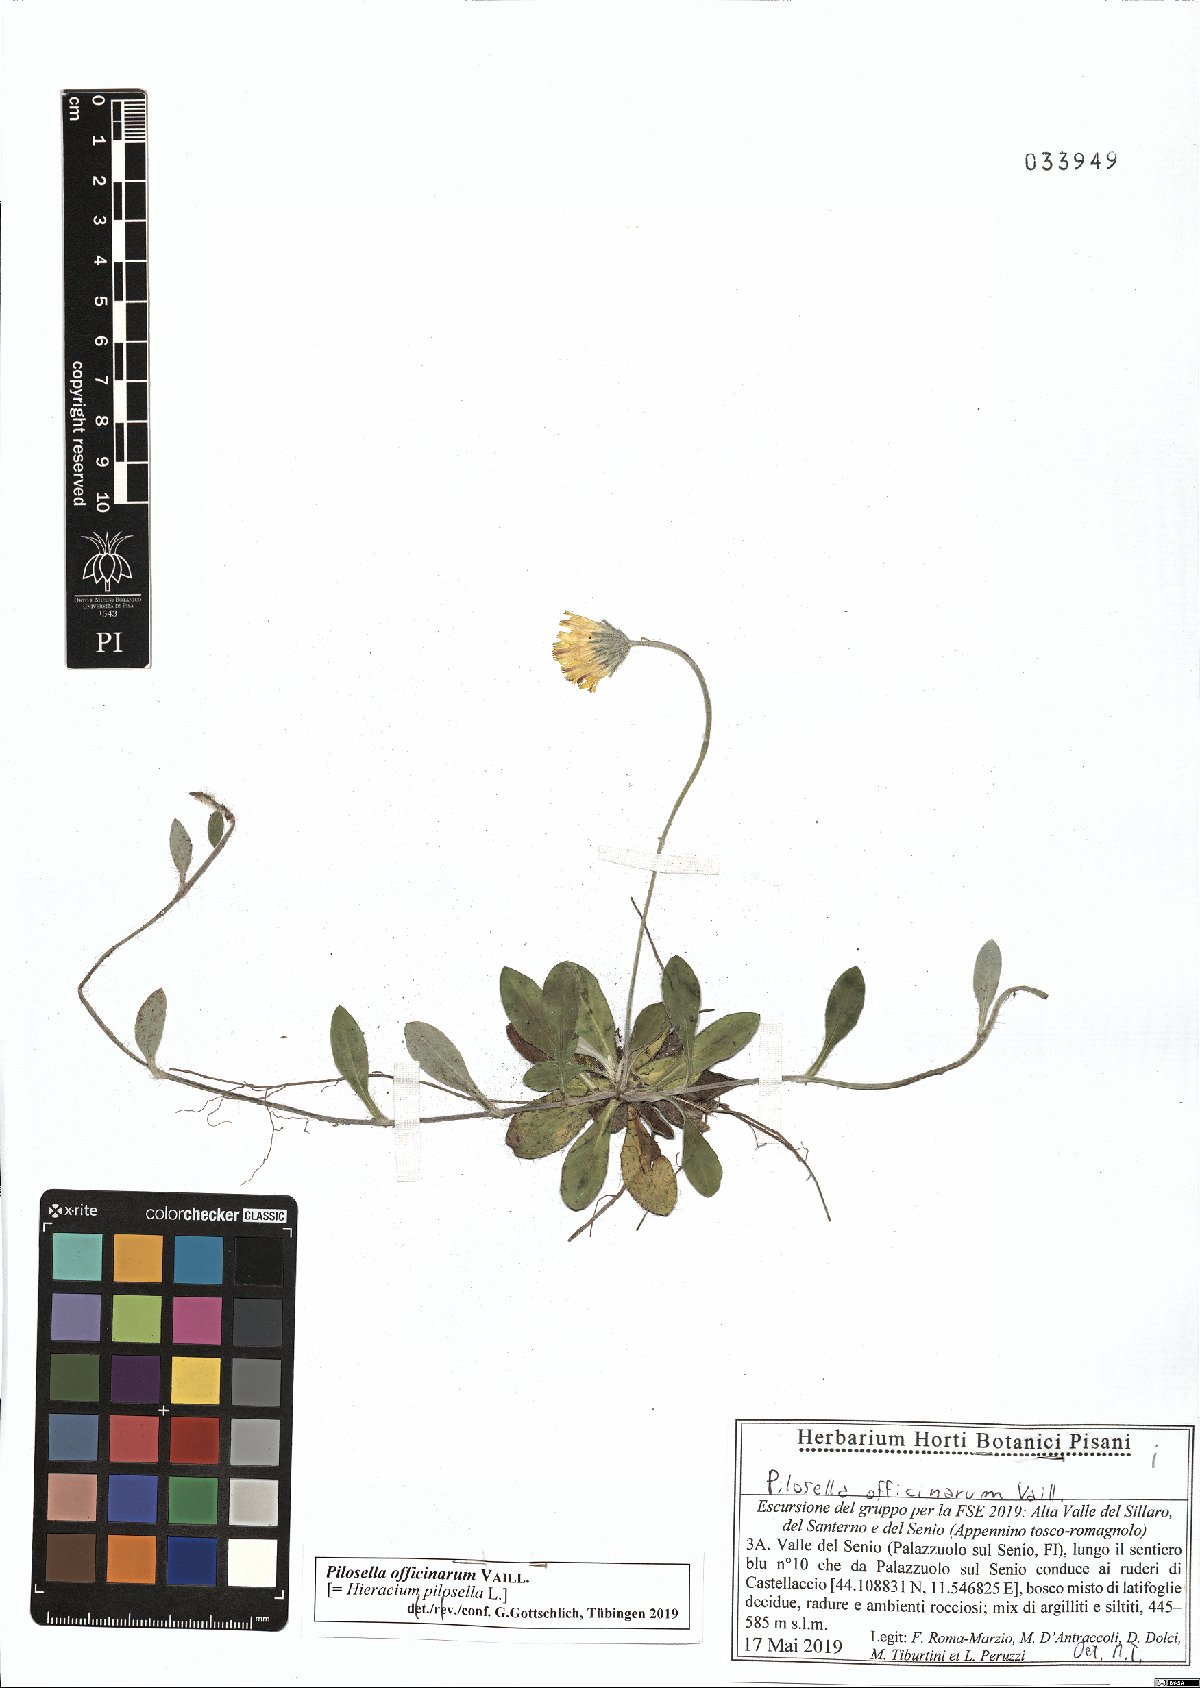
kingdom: Plantae
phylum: Tracheophyta
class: Magnoliopsida
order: Asterales
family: Asteraceae
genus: Pilosella
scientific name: Pilosella officinarum
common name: Mouse-ear hawkweed
